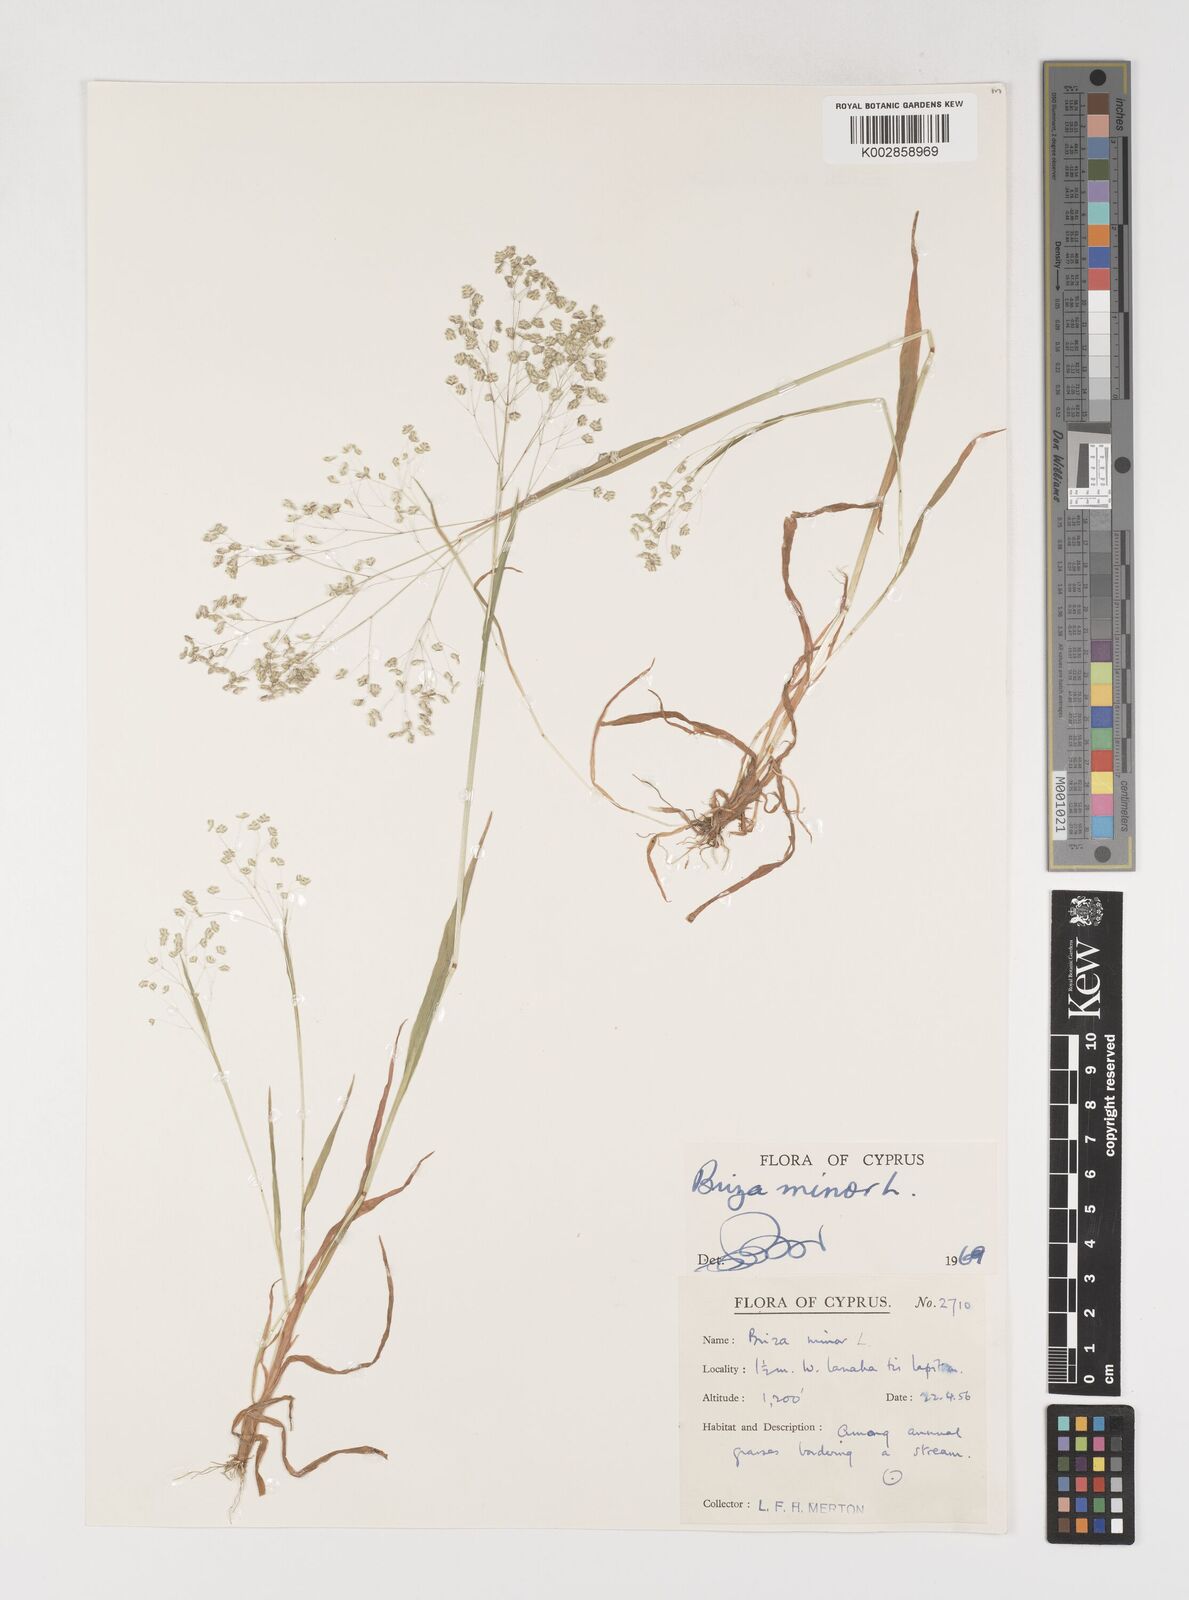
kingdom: Plantae
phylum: Tracheophyta
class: Liliopsida
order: Poales
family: Poaceae
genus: Briza
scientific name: Briza minor
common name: Lesser quaking-grass
